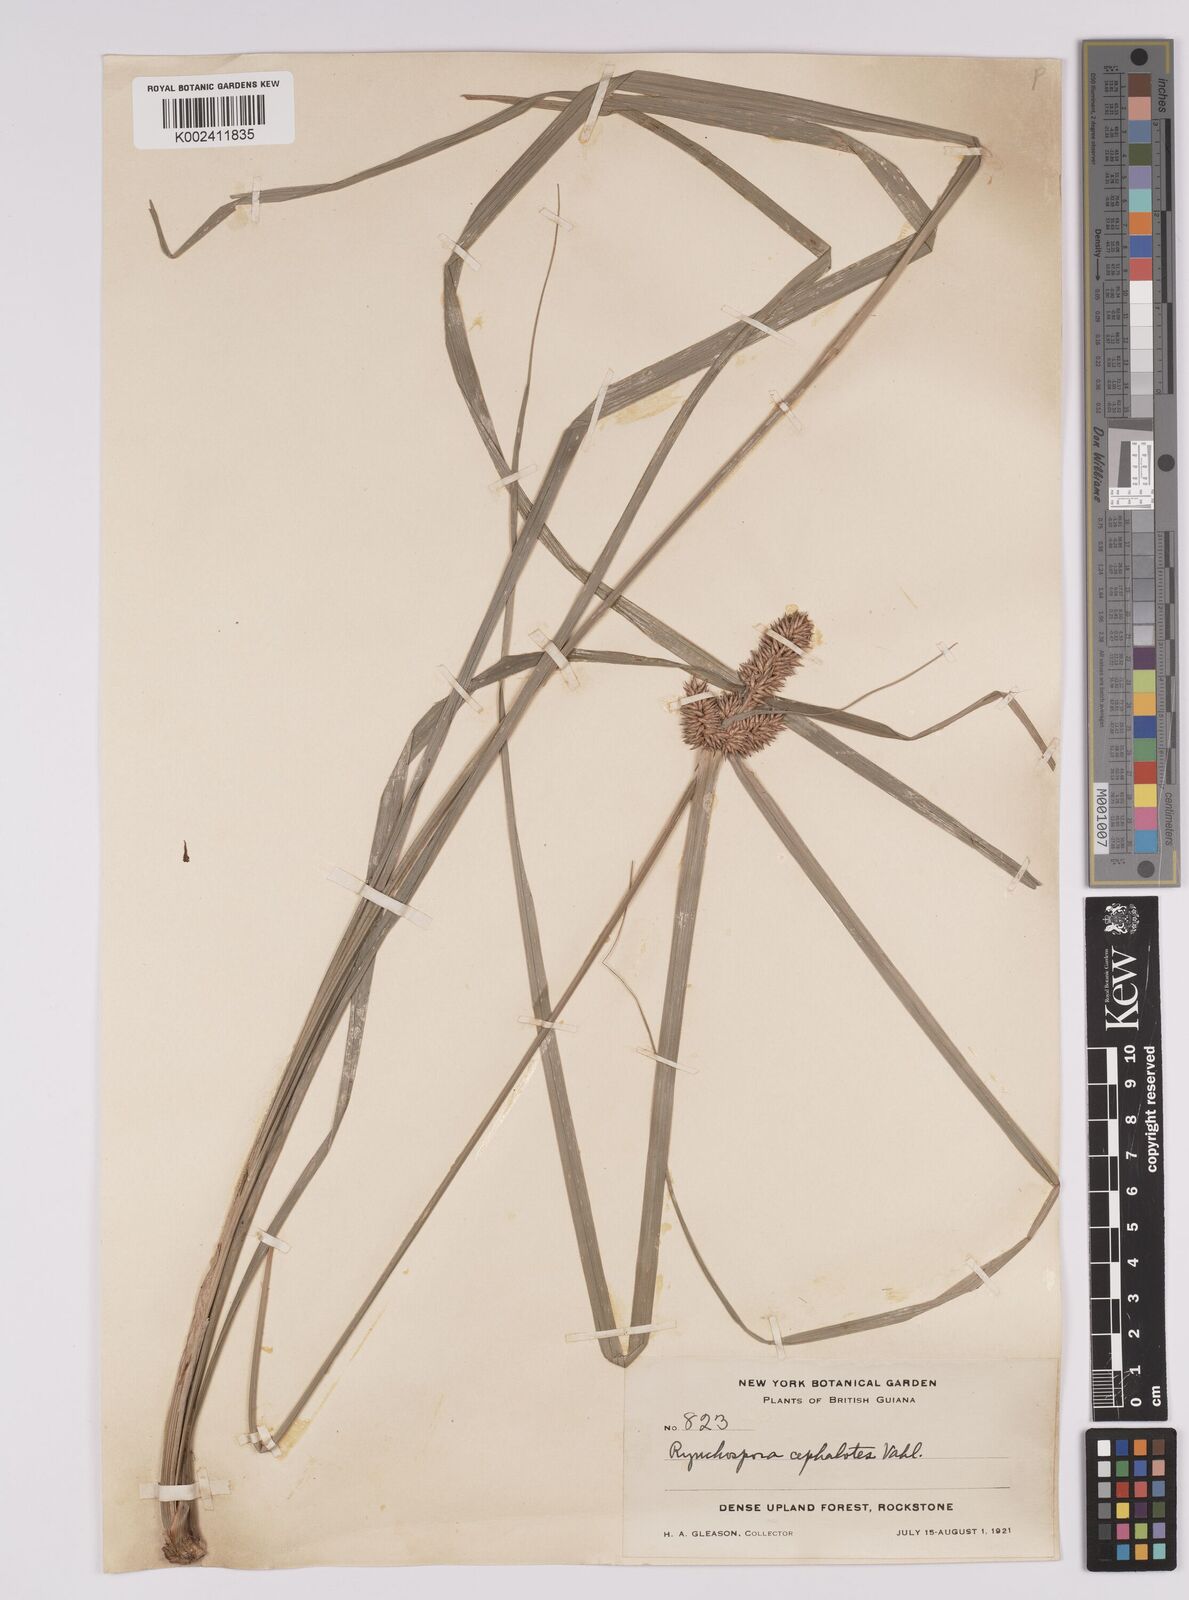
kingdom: Plantae
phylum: Tracheophyta
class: Liliopsida
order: Poales
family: Cyperaceae
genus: Rhynchospora
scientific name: Rhynchospora cephalotes
